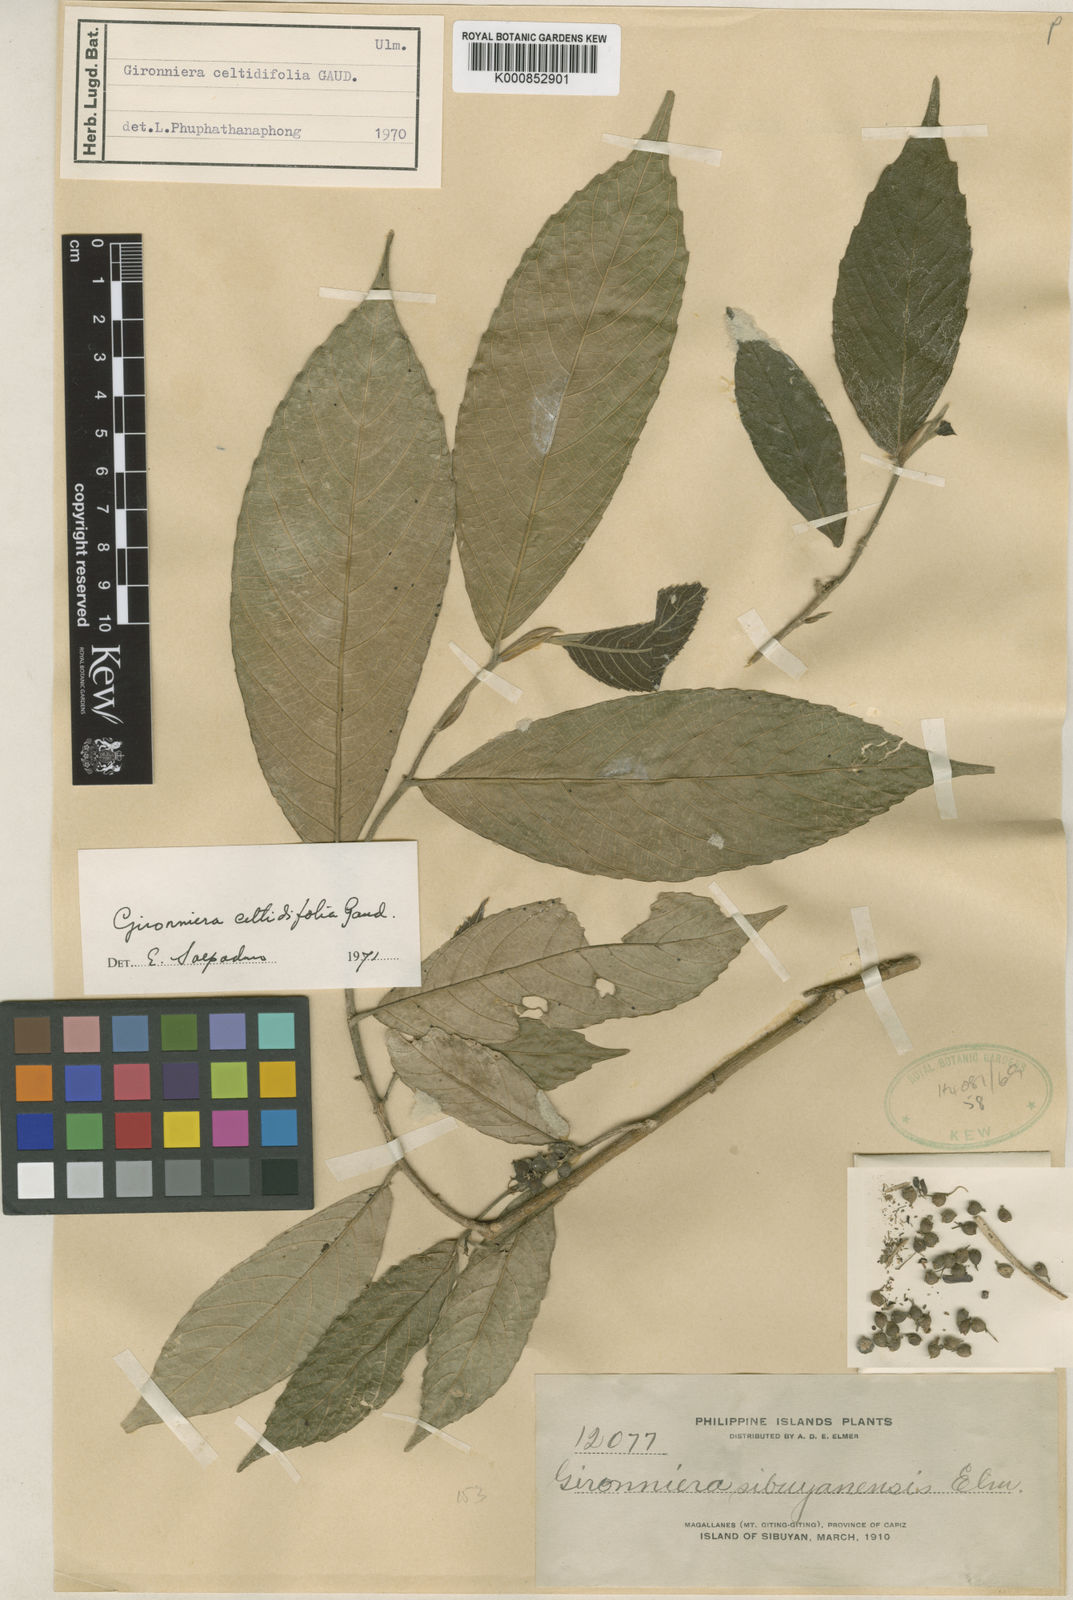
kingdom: Plantae
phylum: Tracheophyta
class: Magnoliopsida
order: Rosales
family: Cannabaceae
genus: Gironniera
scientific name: Gironniera celtidifolia
